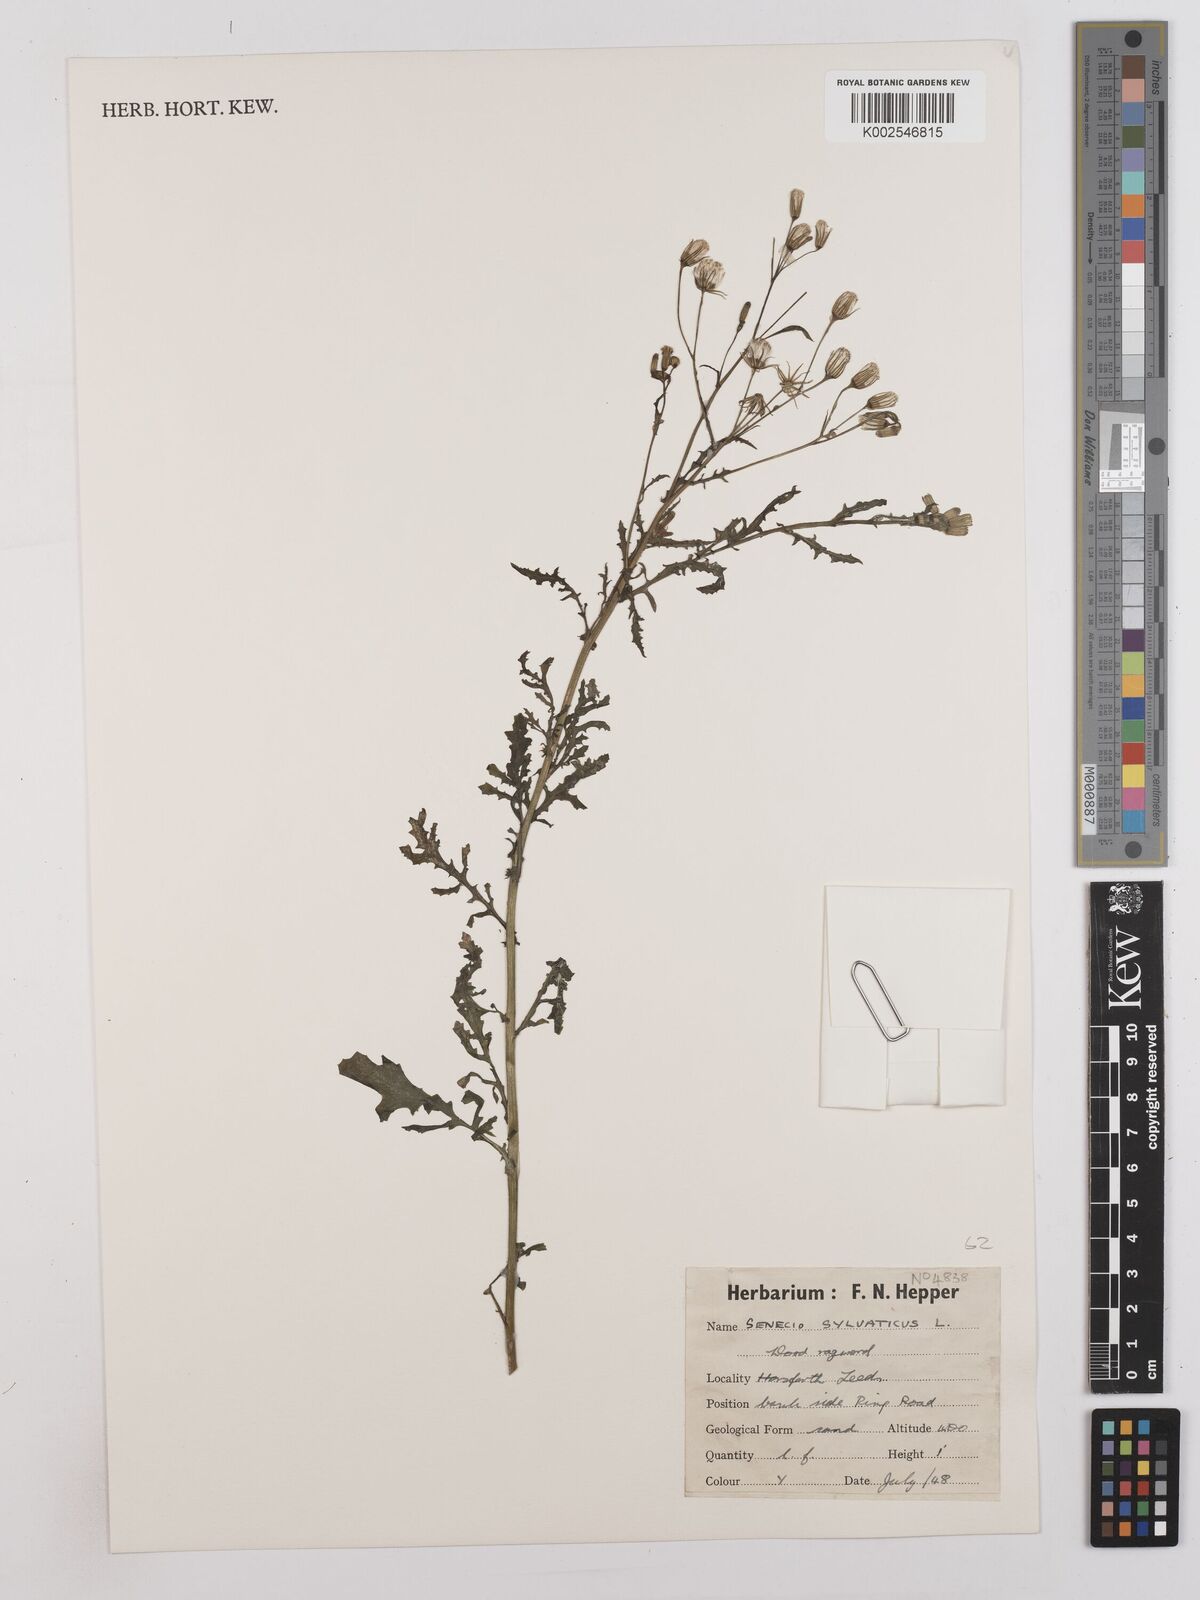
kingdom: Plantae
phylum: Tracheophyta
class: Magnoliopsida
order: Asterales
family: Asteraceae
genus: Senecio
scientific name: Senecio sylvaticus
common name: Woodland ragwort
